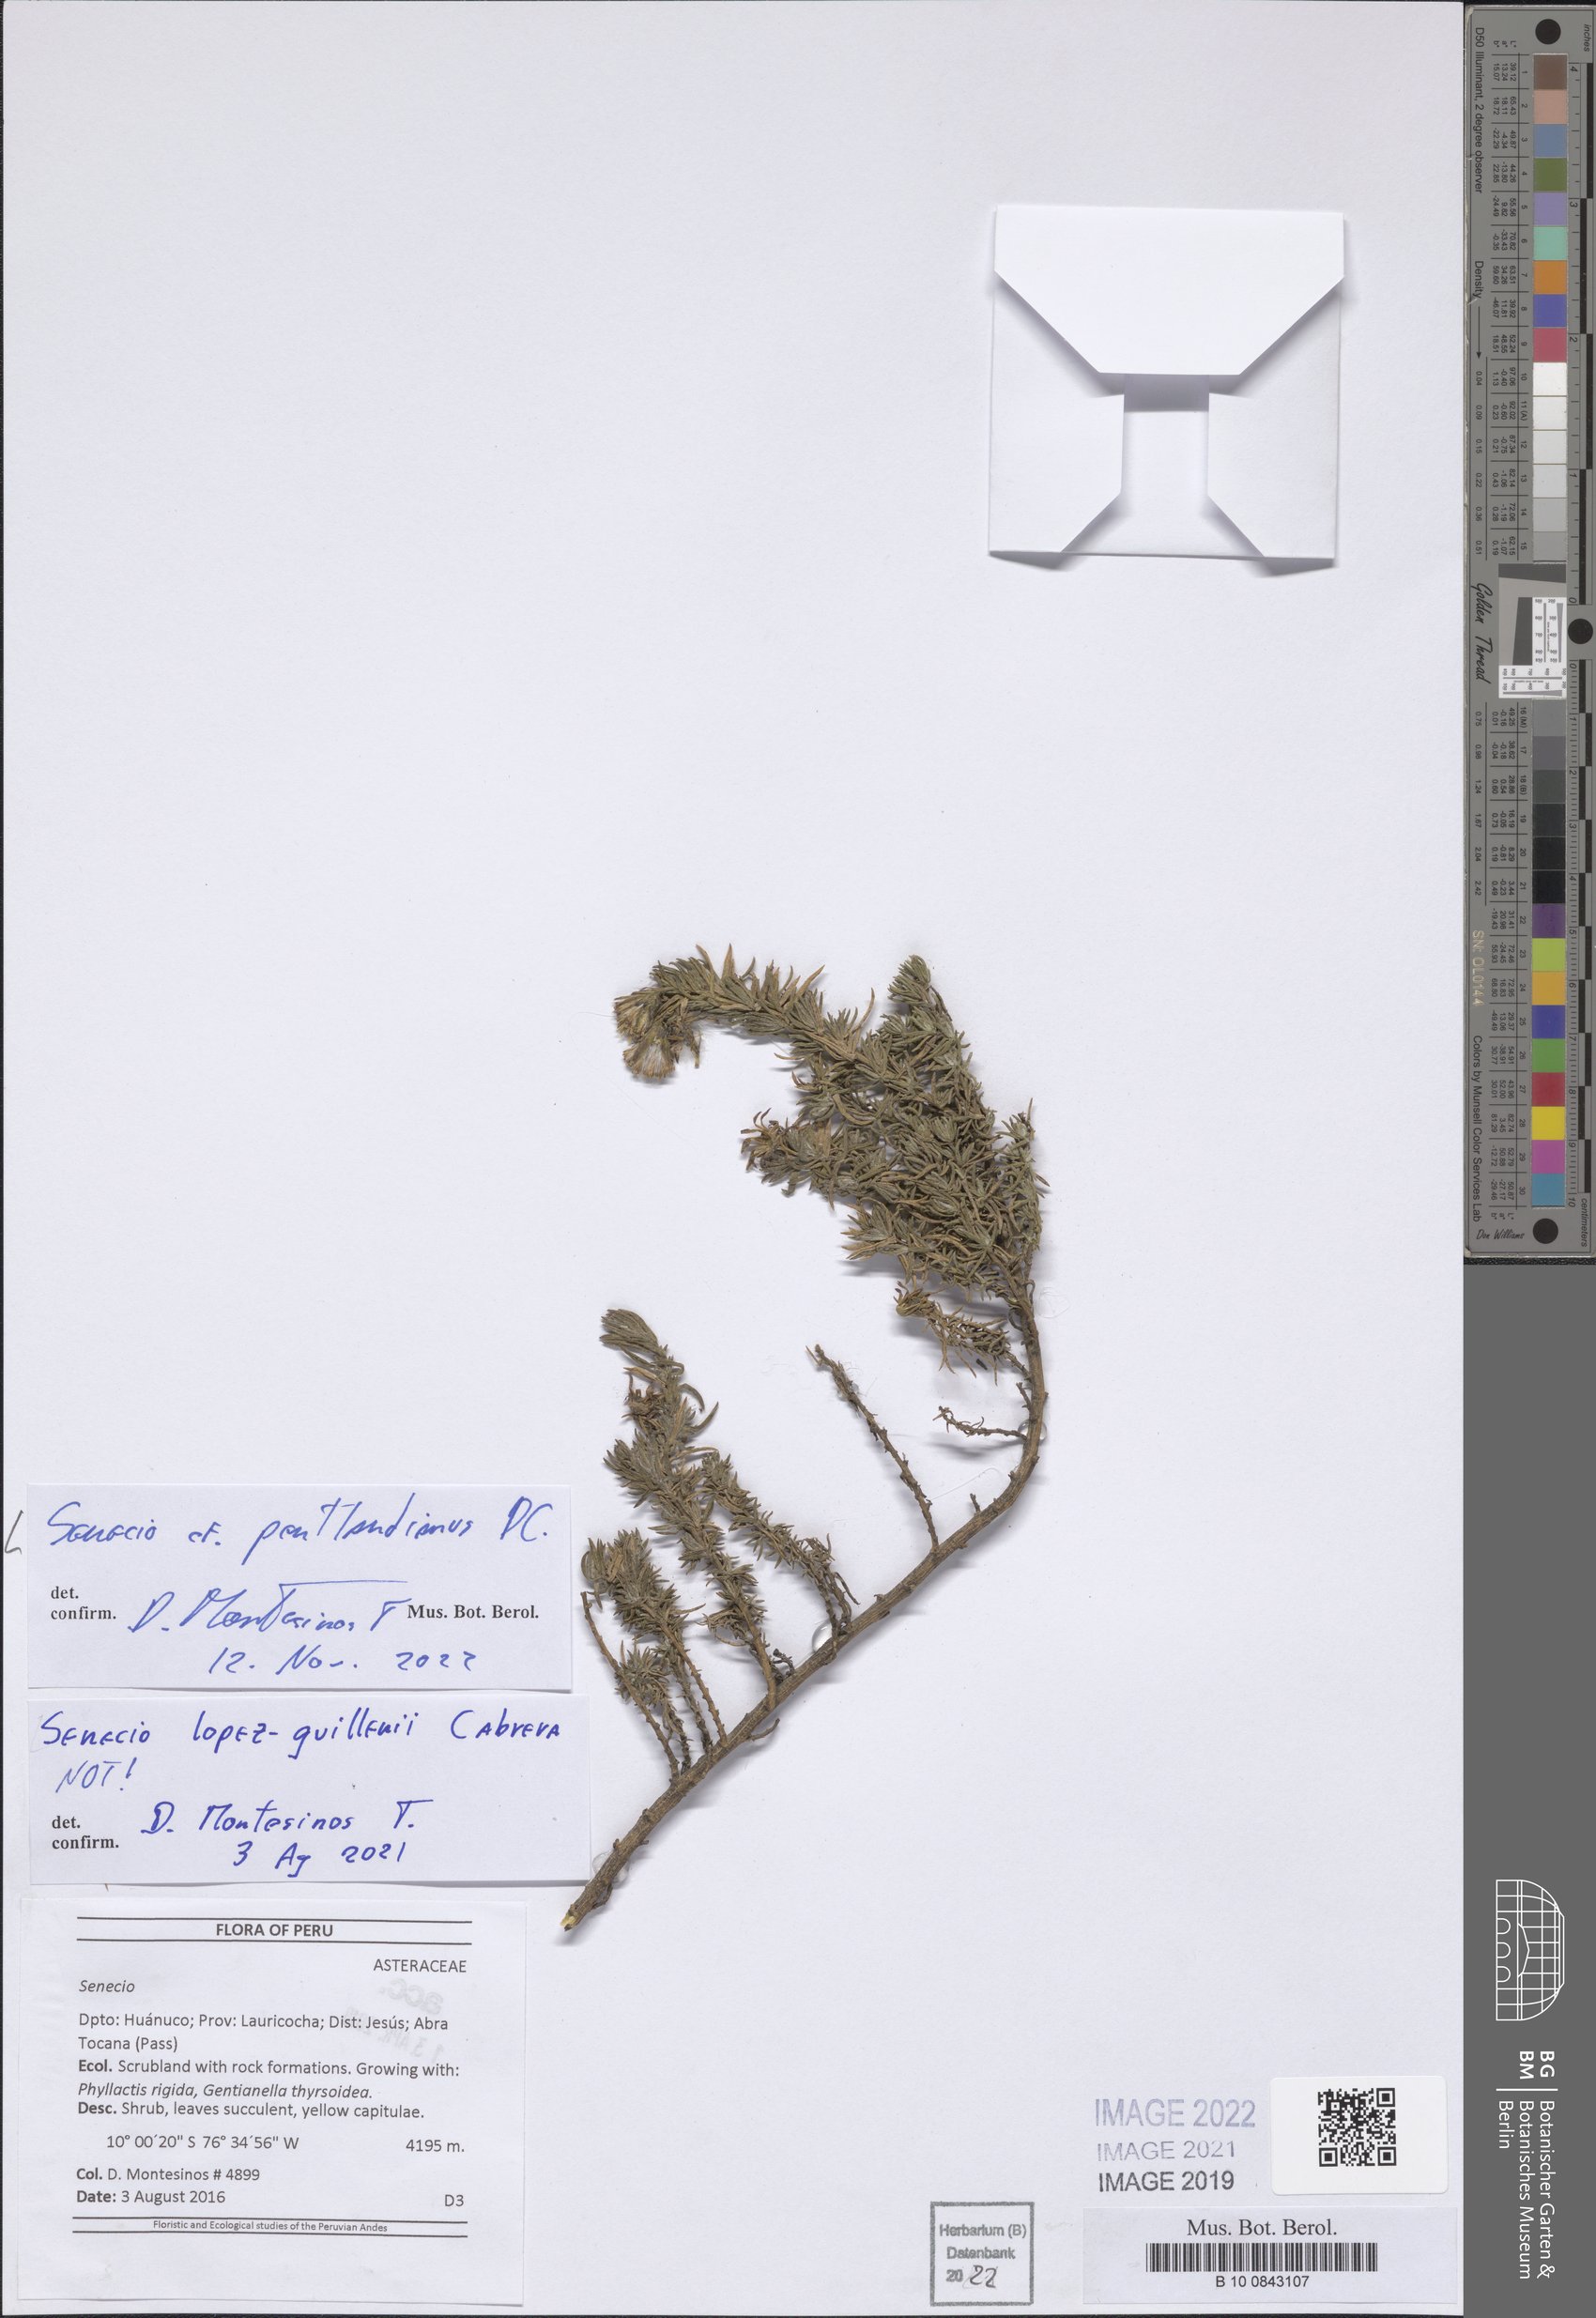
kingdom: Plantae
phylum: Tracheophyta
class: Magnoliopsida
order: Asterales
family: Asteraceae
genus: Senecio
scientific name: Senecio pentlandianus
